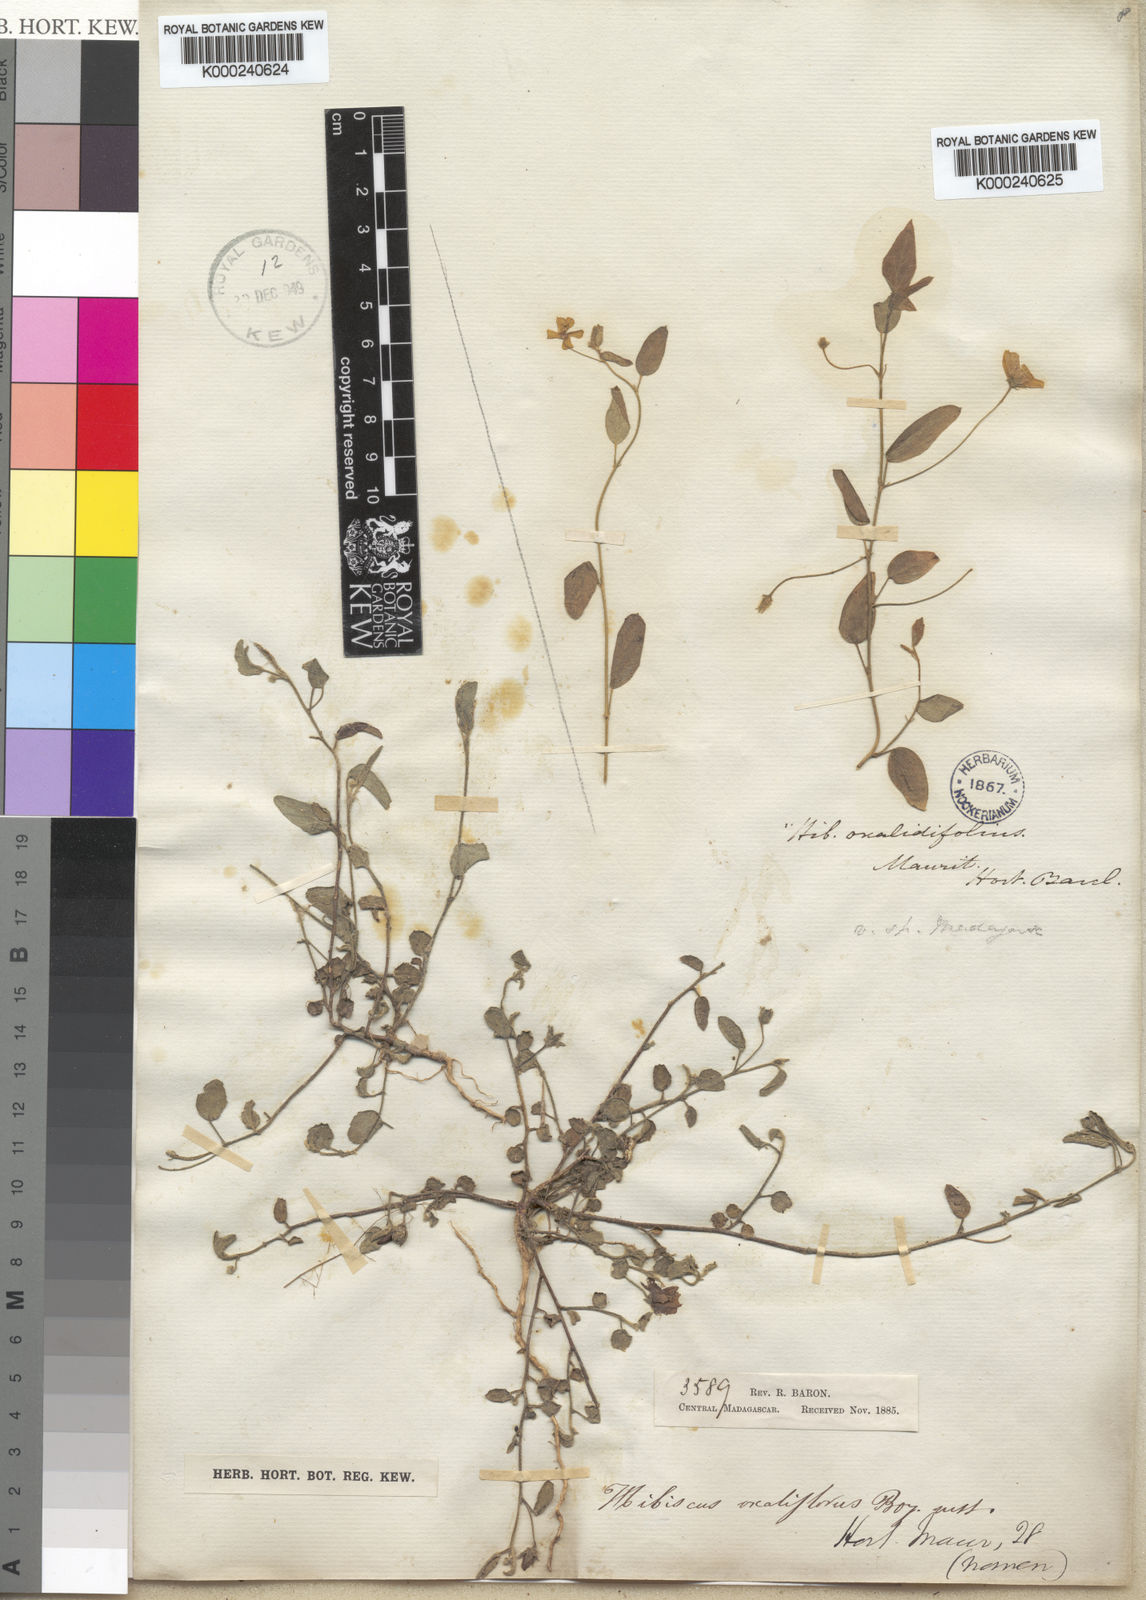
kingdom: Plantae
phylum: Tracheophyta
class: Magnoliopsida
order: Malvales
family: Malvaceae
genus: Hibiscus
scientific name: Hibiscus
